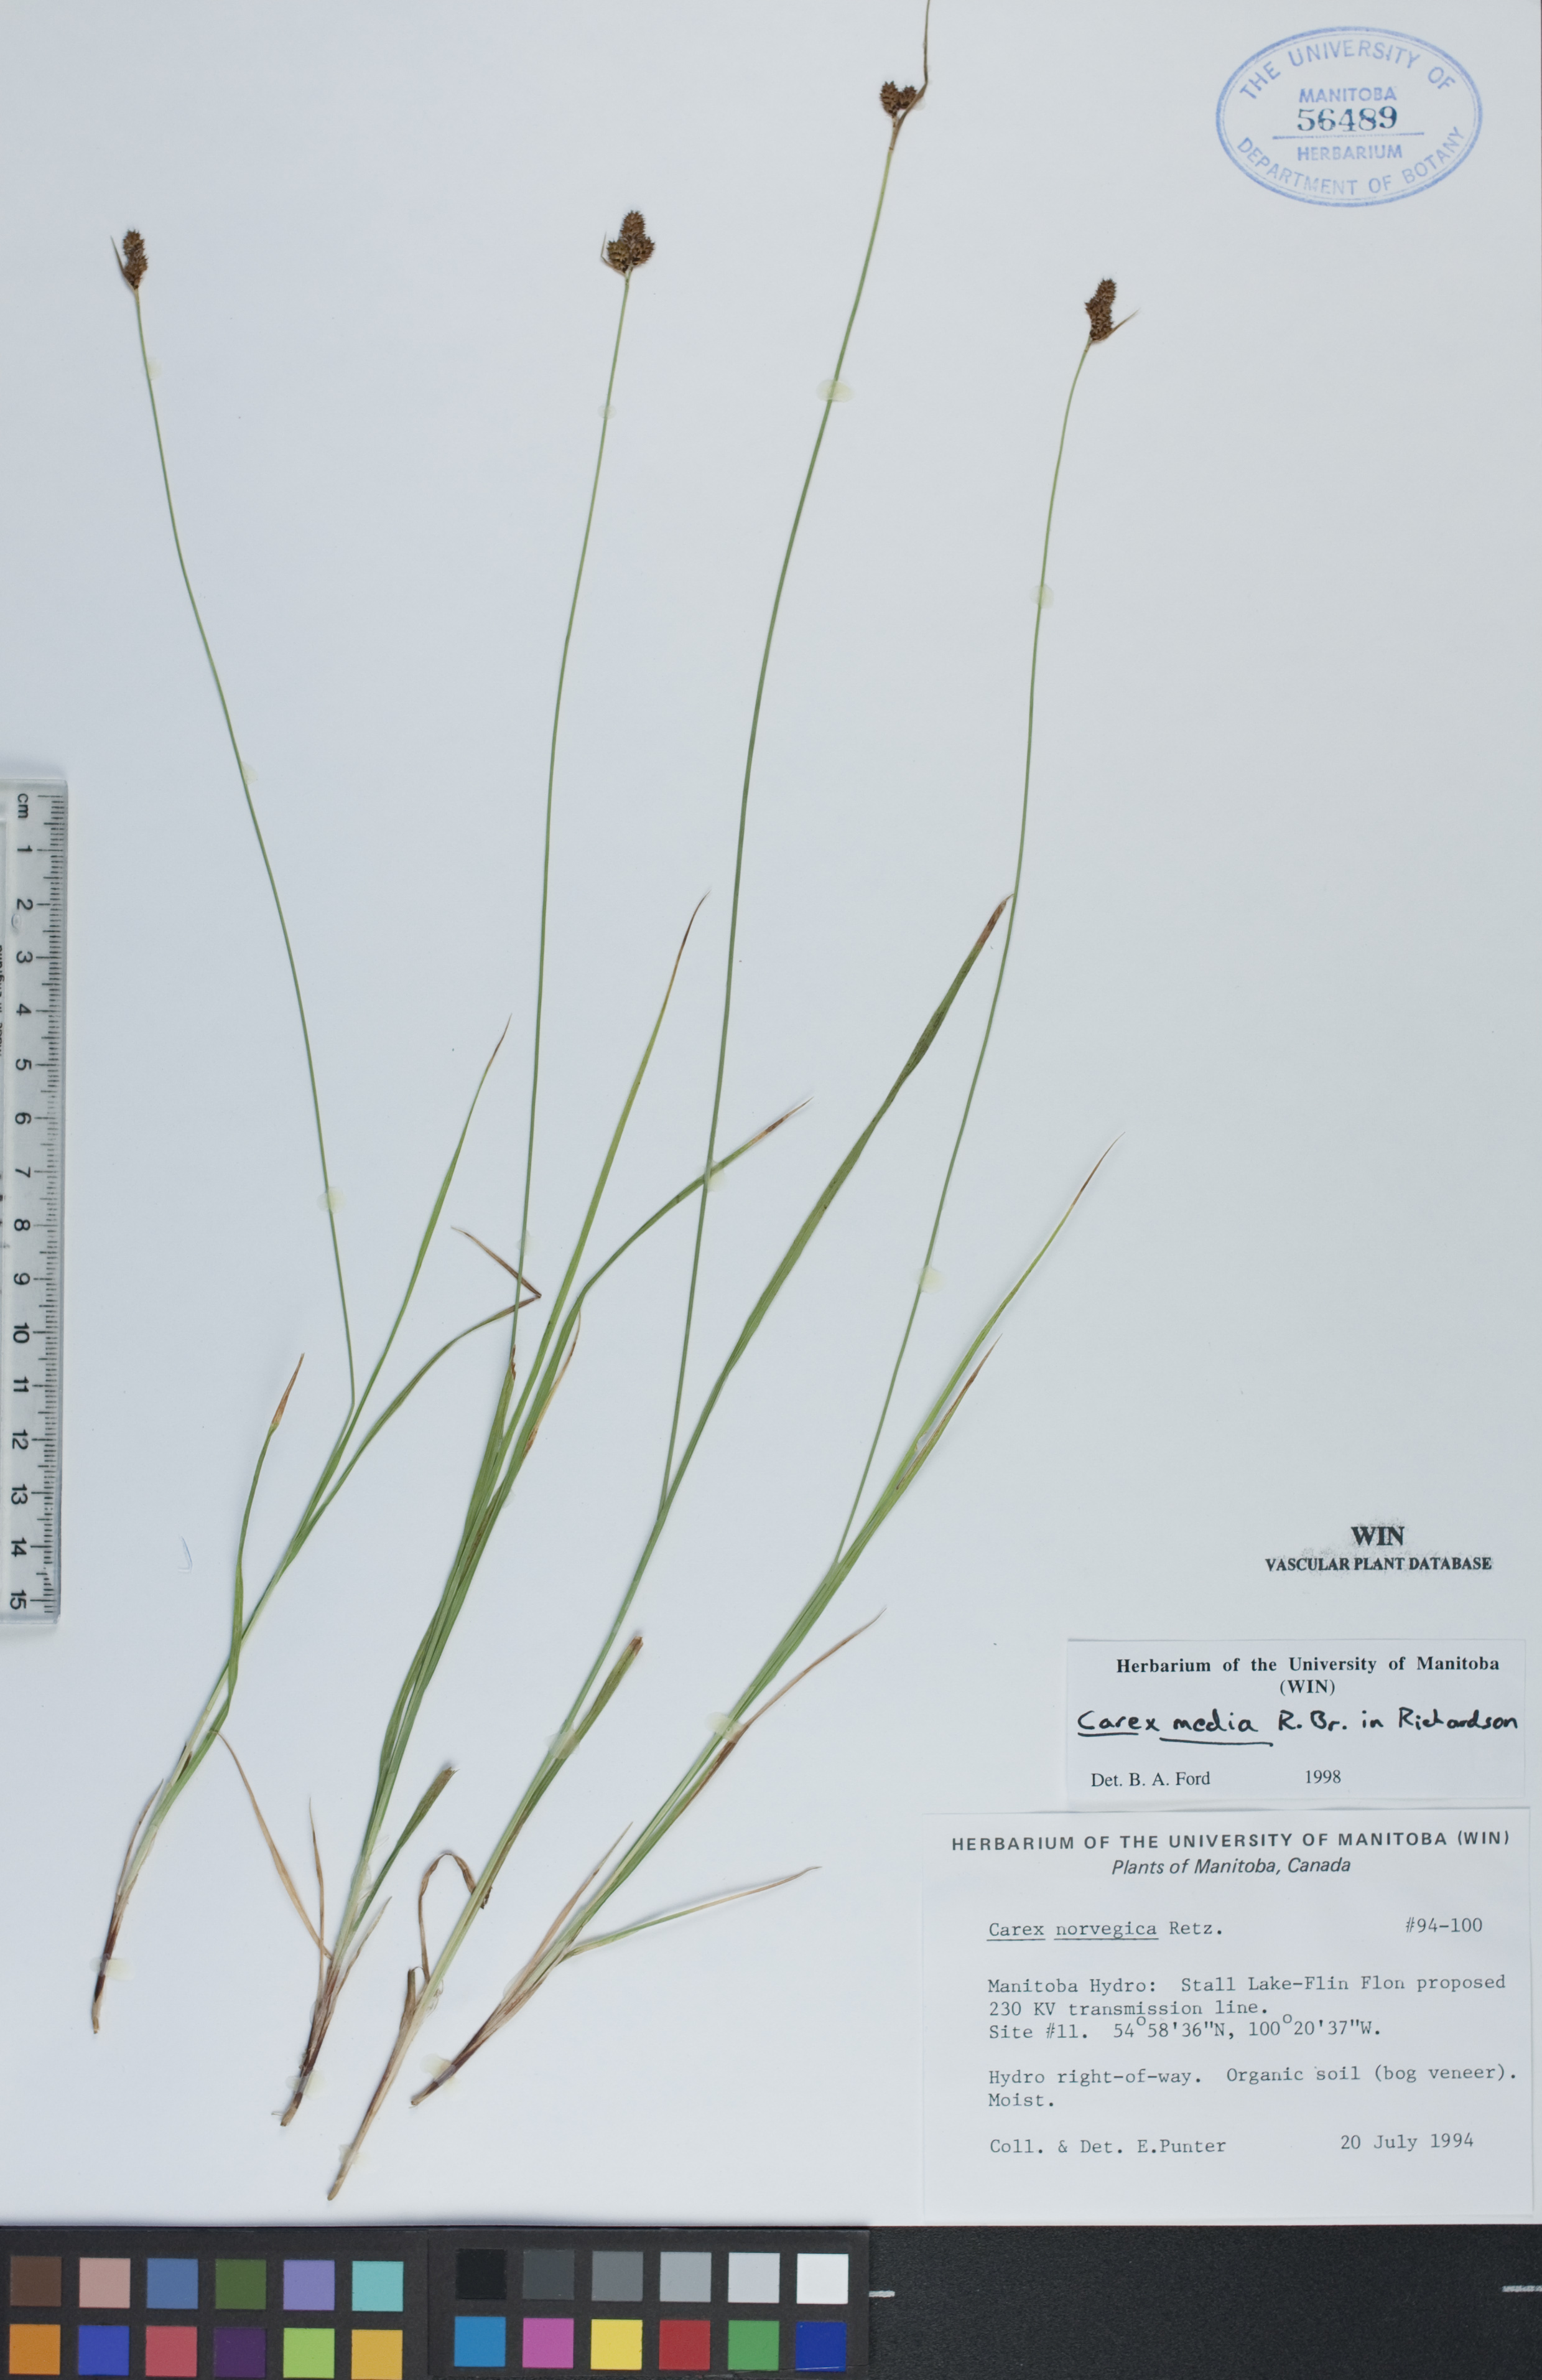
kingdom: Plantae
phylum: Tracheophyta
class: Liliopsida
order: Poales
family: Cyperaceae
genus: Carex
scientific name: Carex media
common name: Alpine sedge
